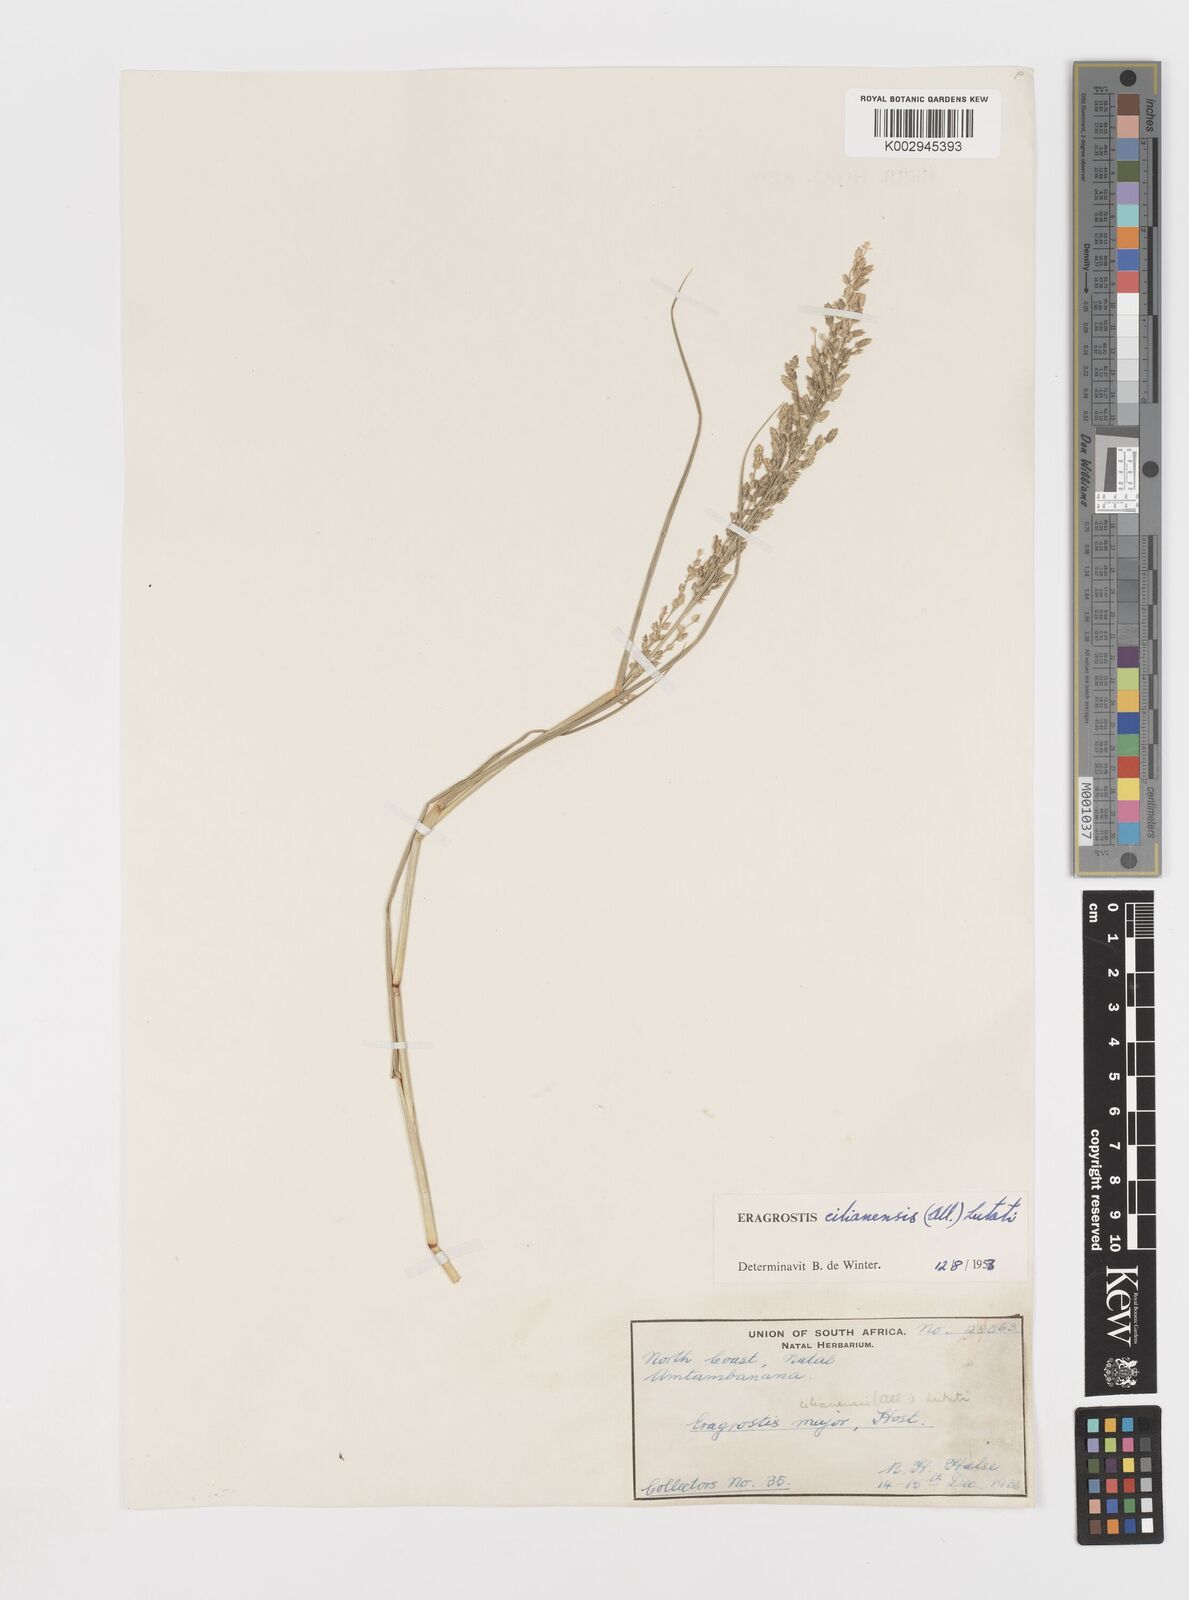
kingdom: Plantae
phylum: Tracheophyta
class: Liliopsida
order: Poales
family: Poaceae
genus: Eragrostis
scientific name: Eragrostis cilianensis
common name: Stinkgrass
